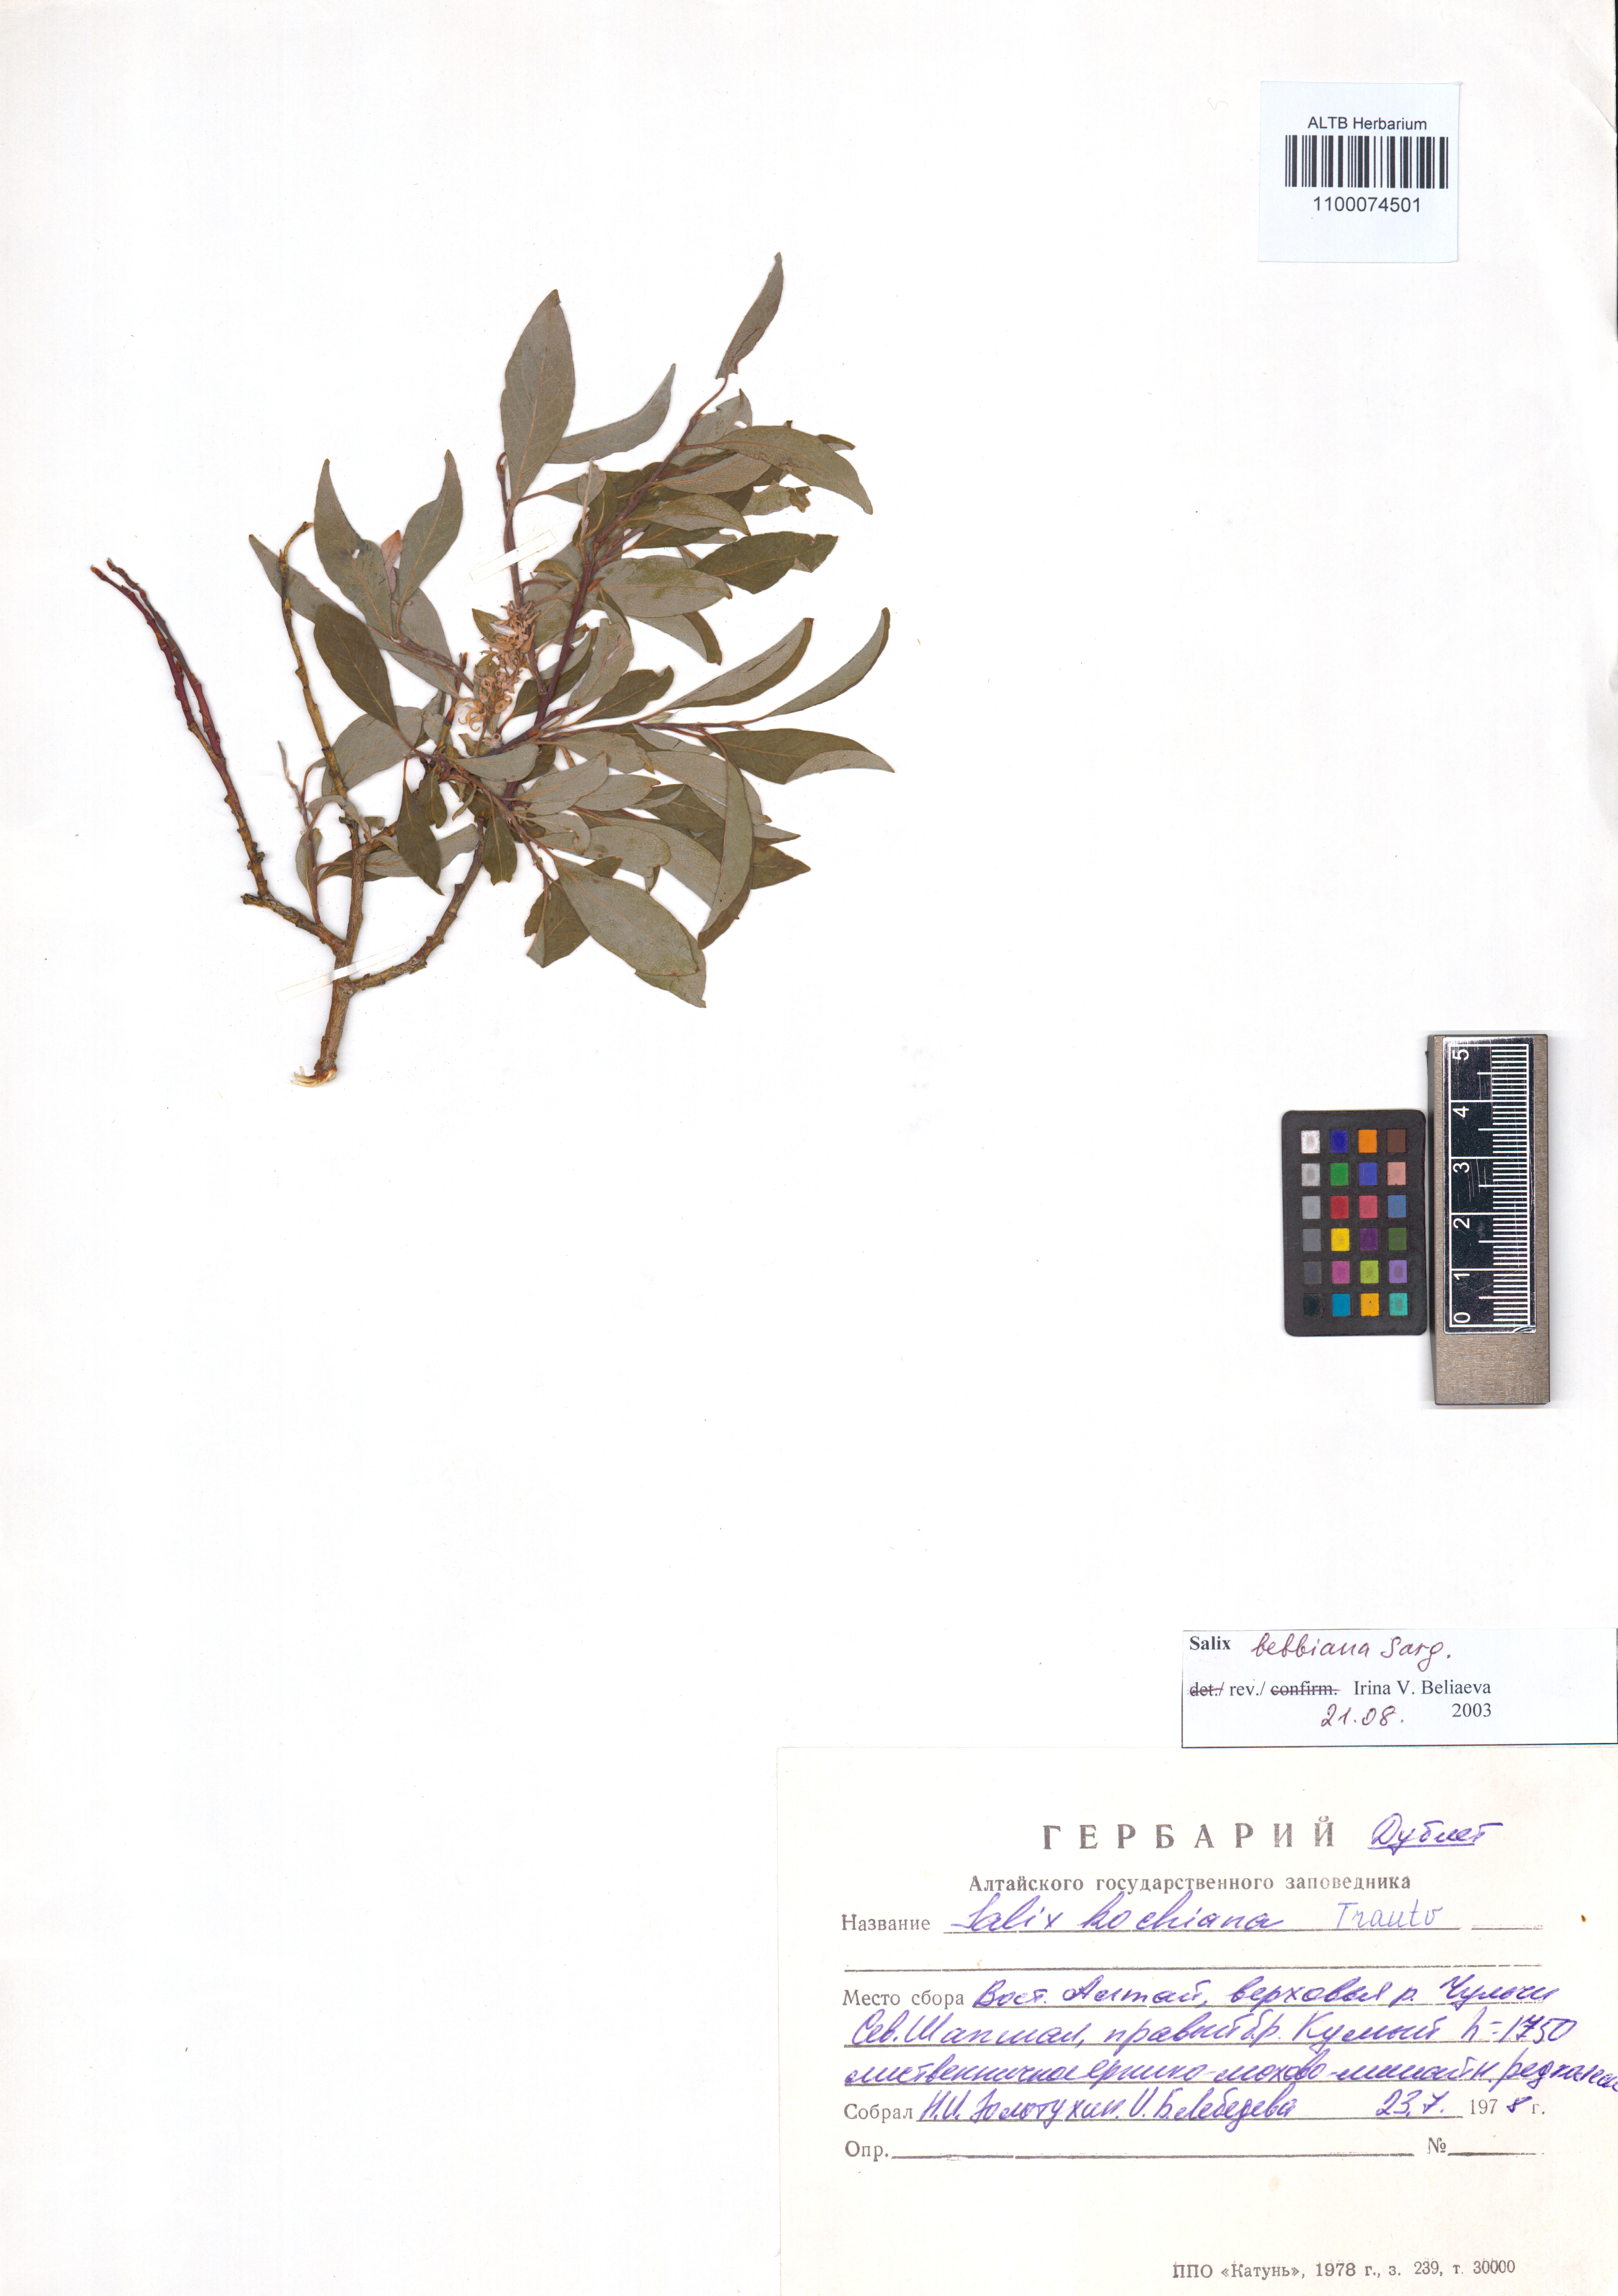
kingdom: Plantae
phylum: Tracheophyta
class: Magnoliopsida
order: Malpighiales
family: Salicaceae
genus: Salix
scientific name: Salix bebbiana
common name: Bebb's willow
